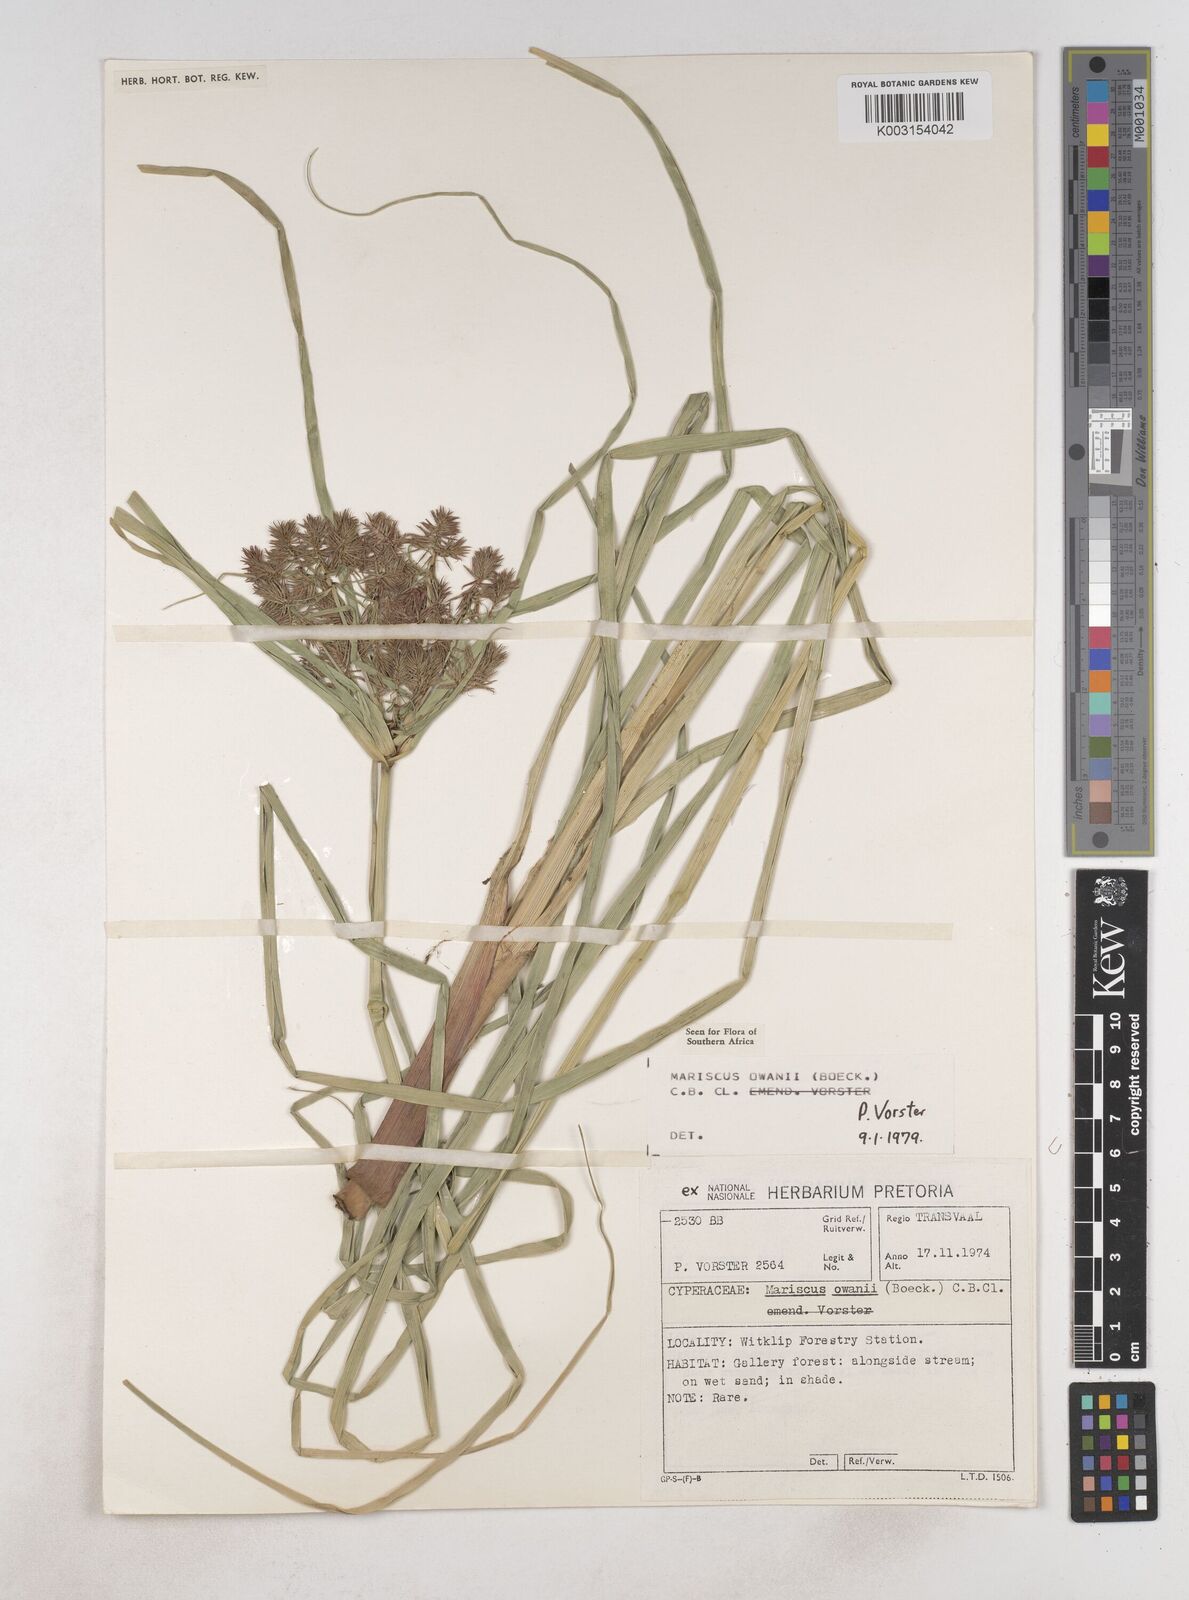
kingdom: Plantae
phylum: Tracheophyta
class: Liliopsida
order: Poales
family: Cyperaceae
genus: Cyperus
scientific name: Cyperus owanii
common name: Owan's flatsedge
